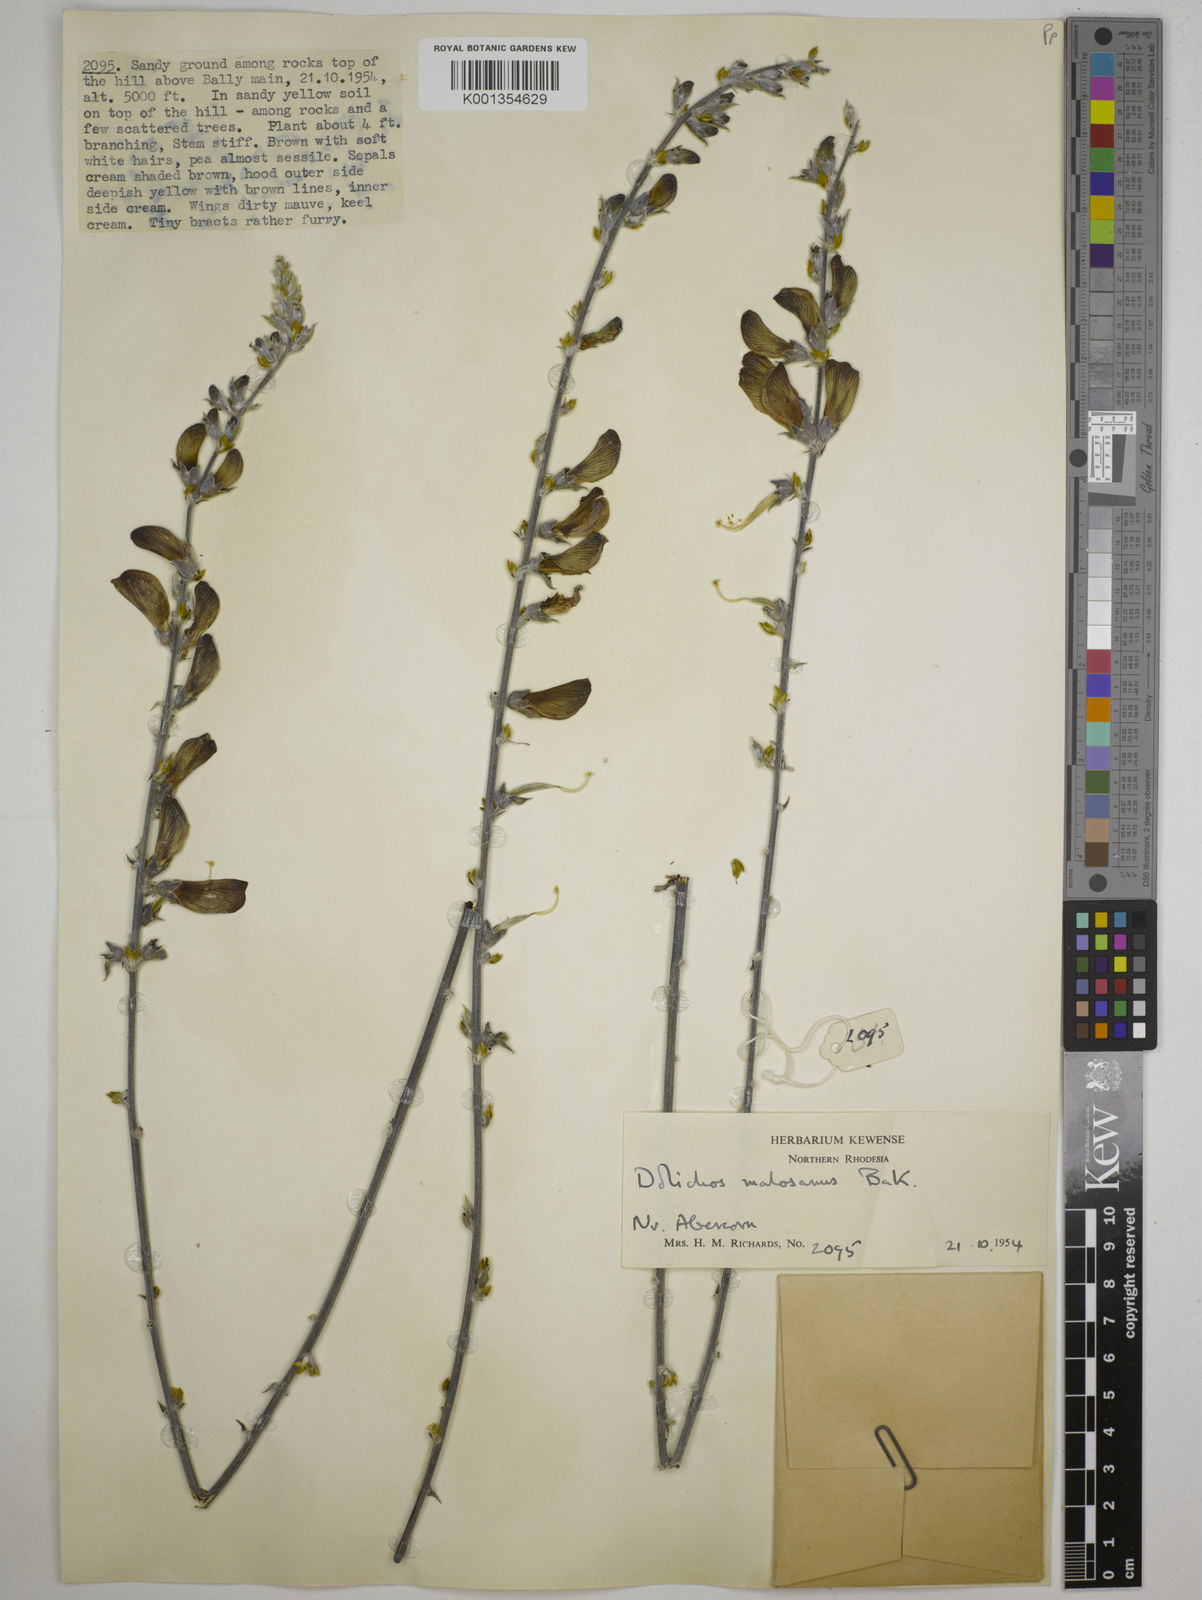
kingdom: Plantae
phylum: Tracheophyta
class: Magnoliopsida
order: Fabales
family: Fabaceae
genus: Dolichos
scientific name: Dolichos kilimandscharicus
